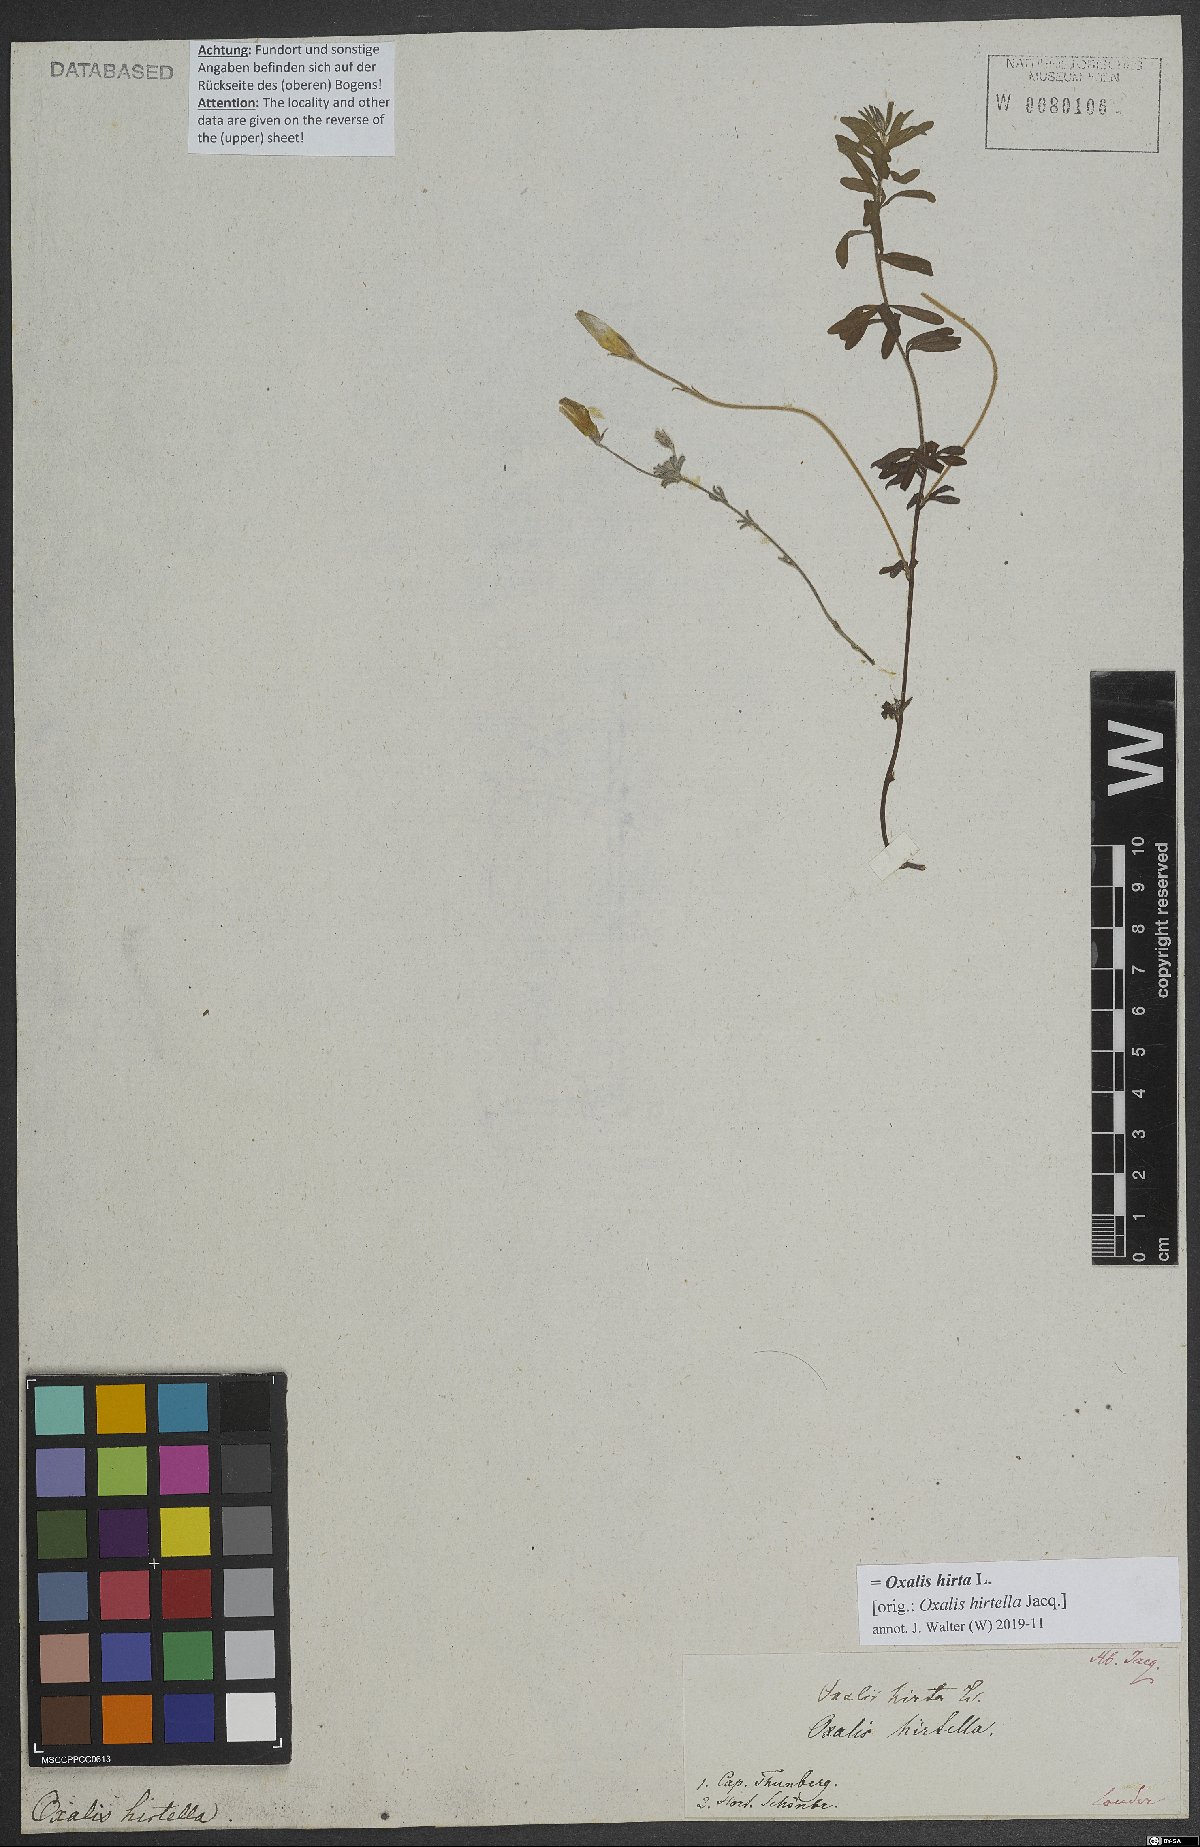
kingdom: Plantae
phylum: Tracheophyta
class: Magnoliopsida
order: Oxalidales
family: Oxalidaceae
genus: Oxalis
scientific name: Oxalis hirta
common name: Tropical woodsorrel
